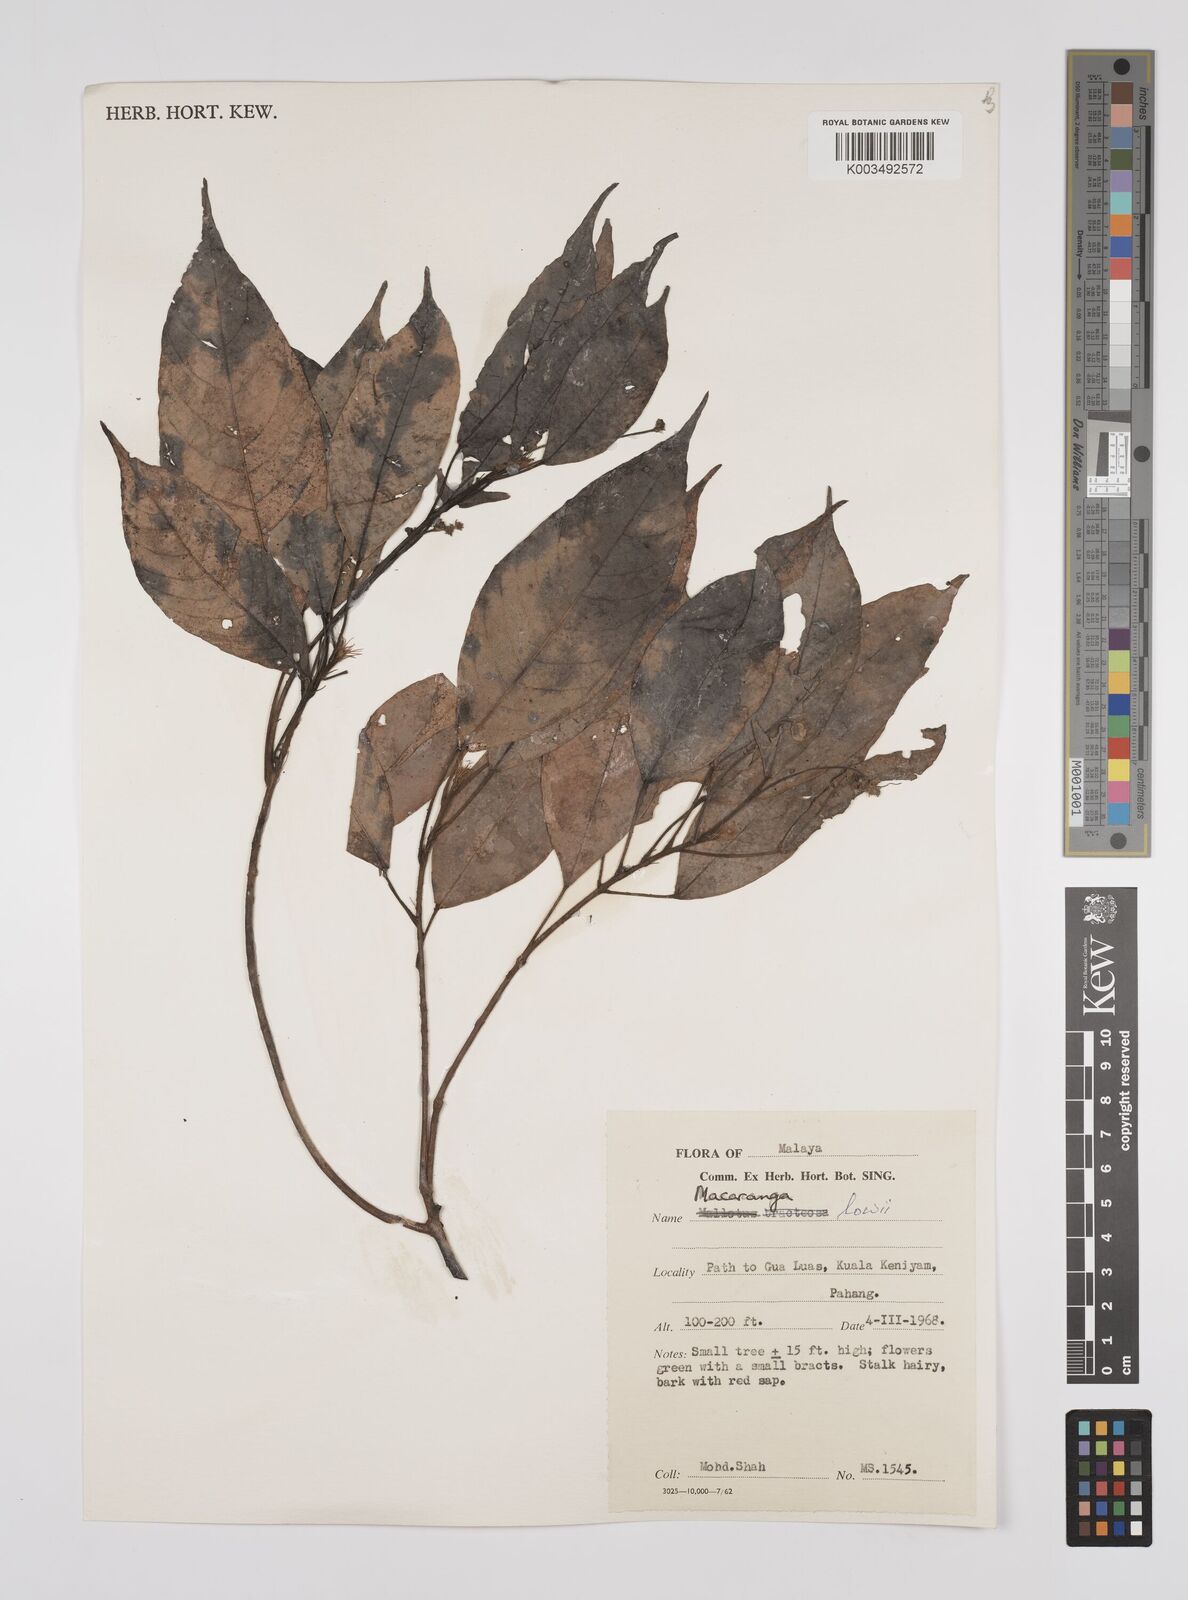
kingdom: Plantae
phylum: Tracheophyta
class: Magnoliopsida
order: Malpighiales
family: Euphorbiaceae
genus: Macaranga
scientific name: Macaranga lowii
